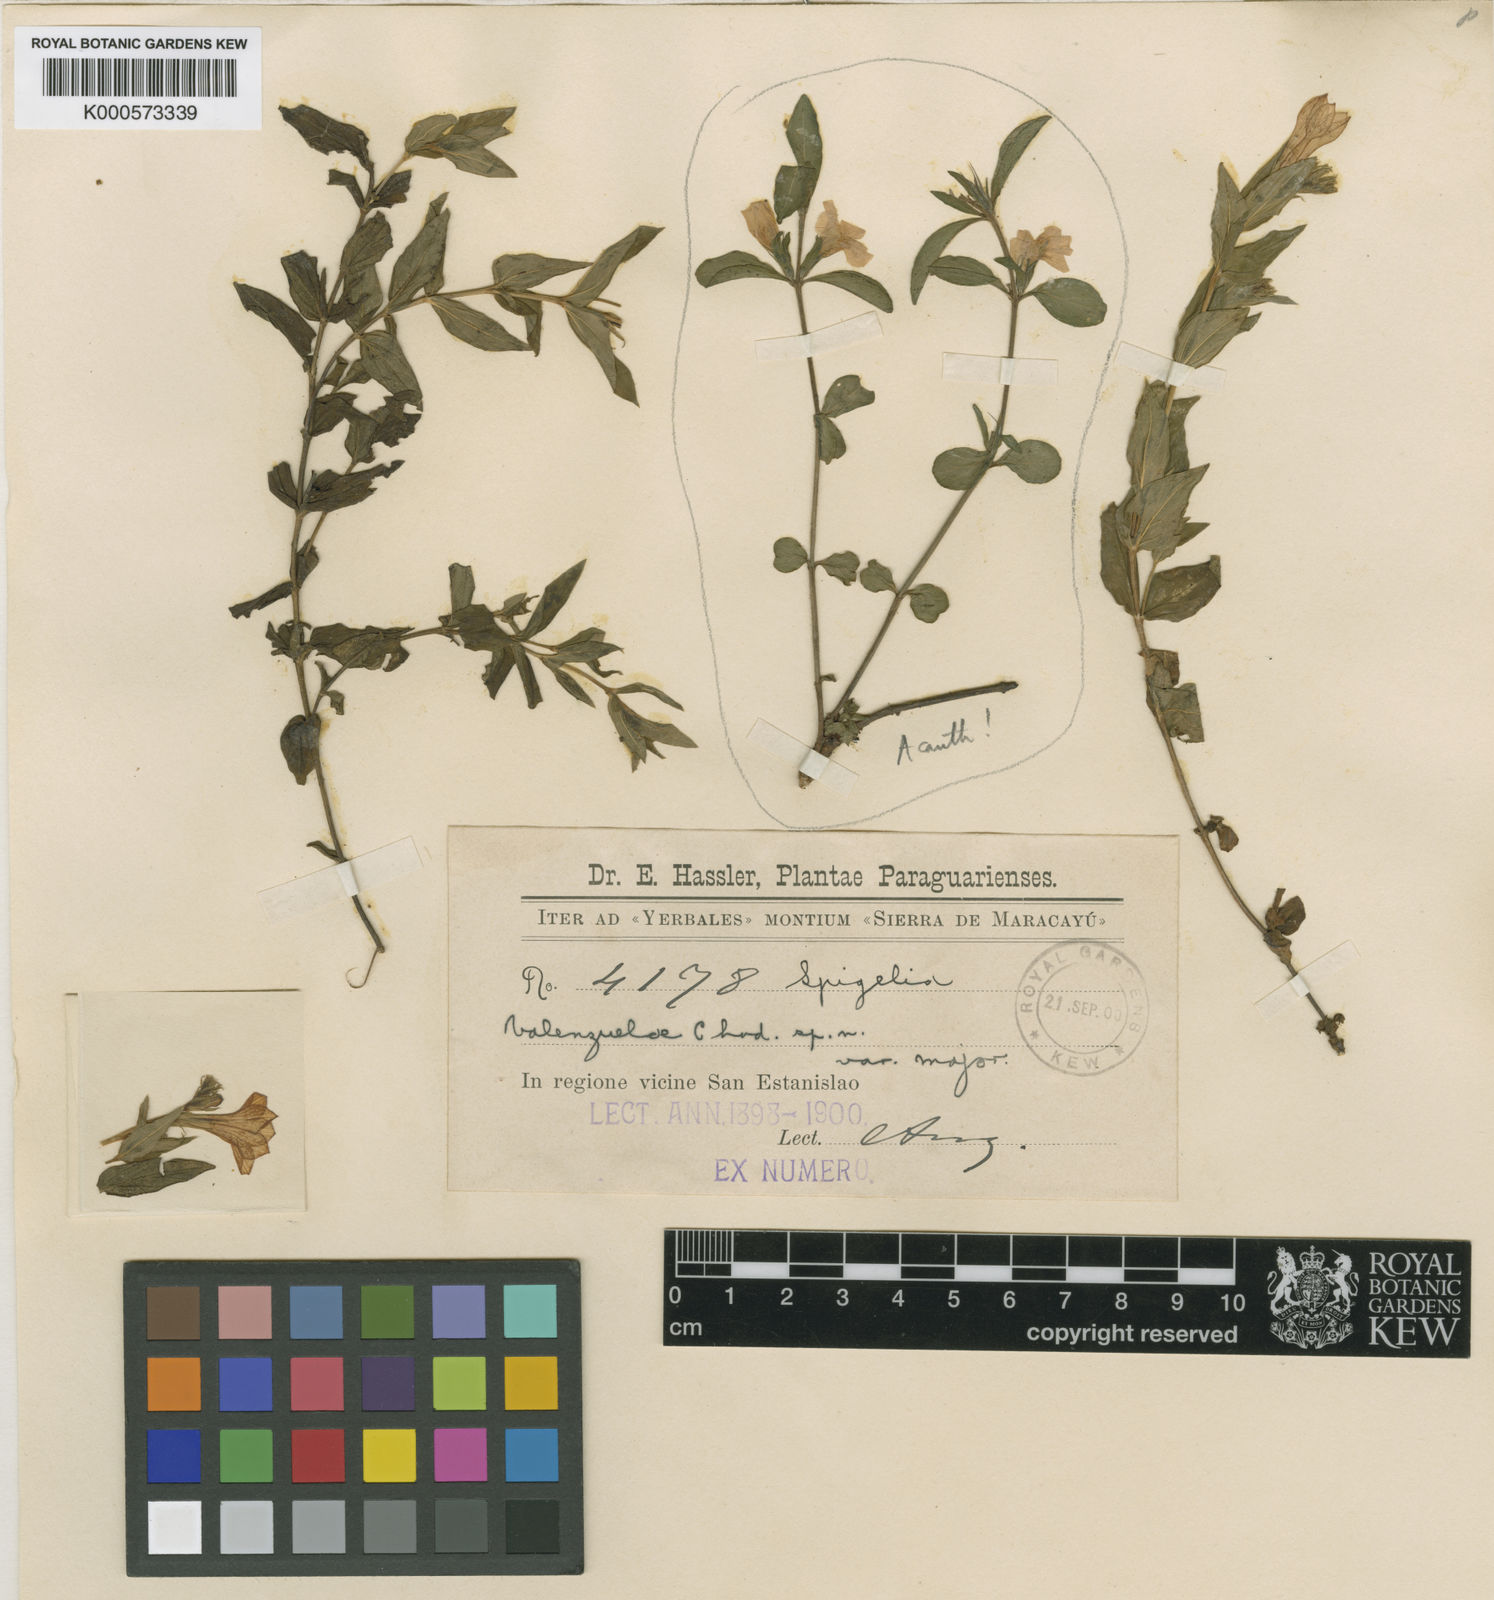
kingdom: Plantae
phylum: Tracheophyta
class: Magnoliopsida
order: Gentianales
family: Loganiaceae
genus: Spigelia
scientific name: Spigelia valenzuelae
